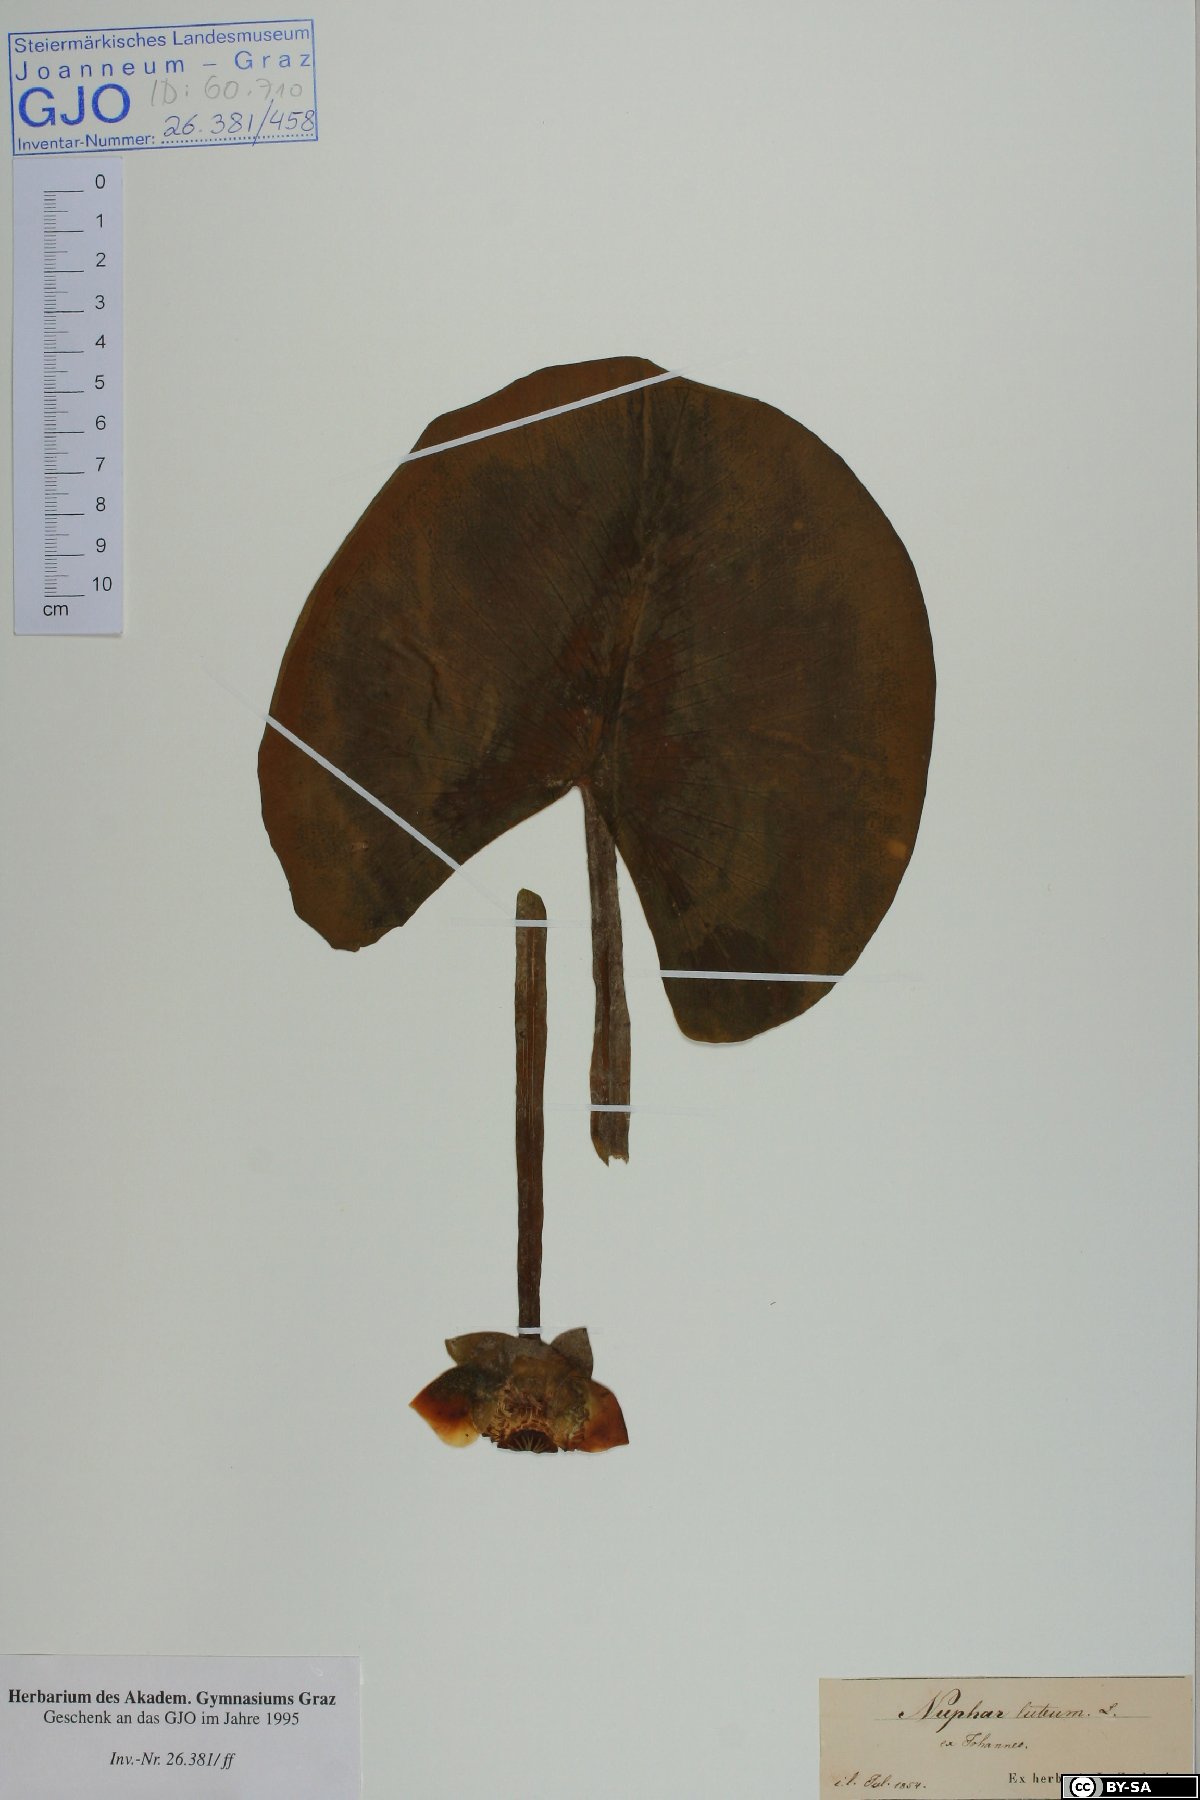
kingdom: Plantae
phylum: Tracheophyta
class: Magnoliopsida
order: Nymphaeales
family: Nymphaeaceae
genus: Nuphar
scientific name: Nuphar lutea
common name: Yellow water-lily
